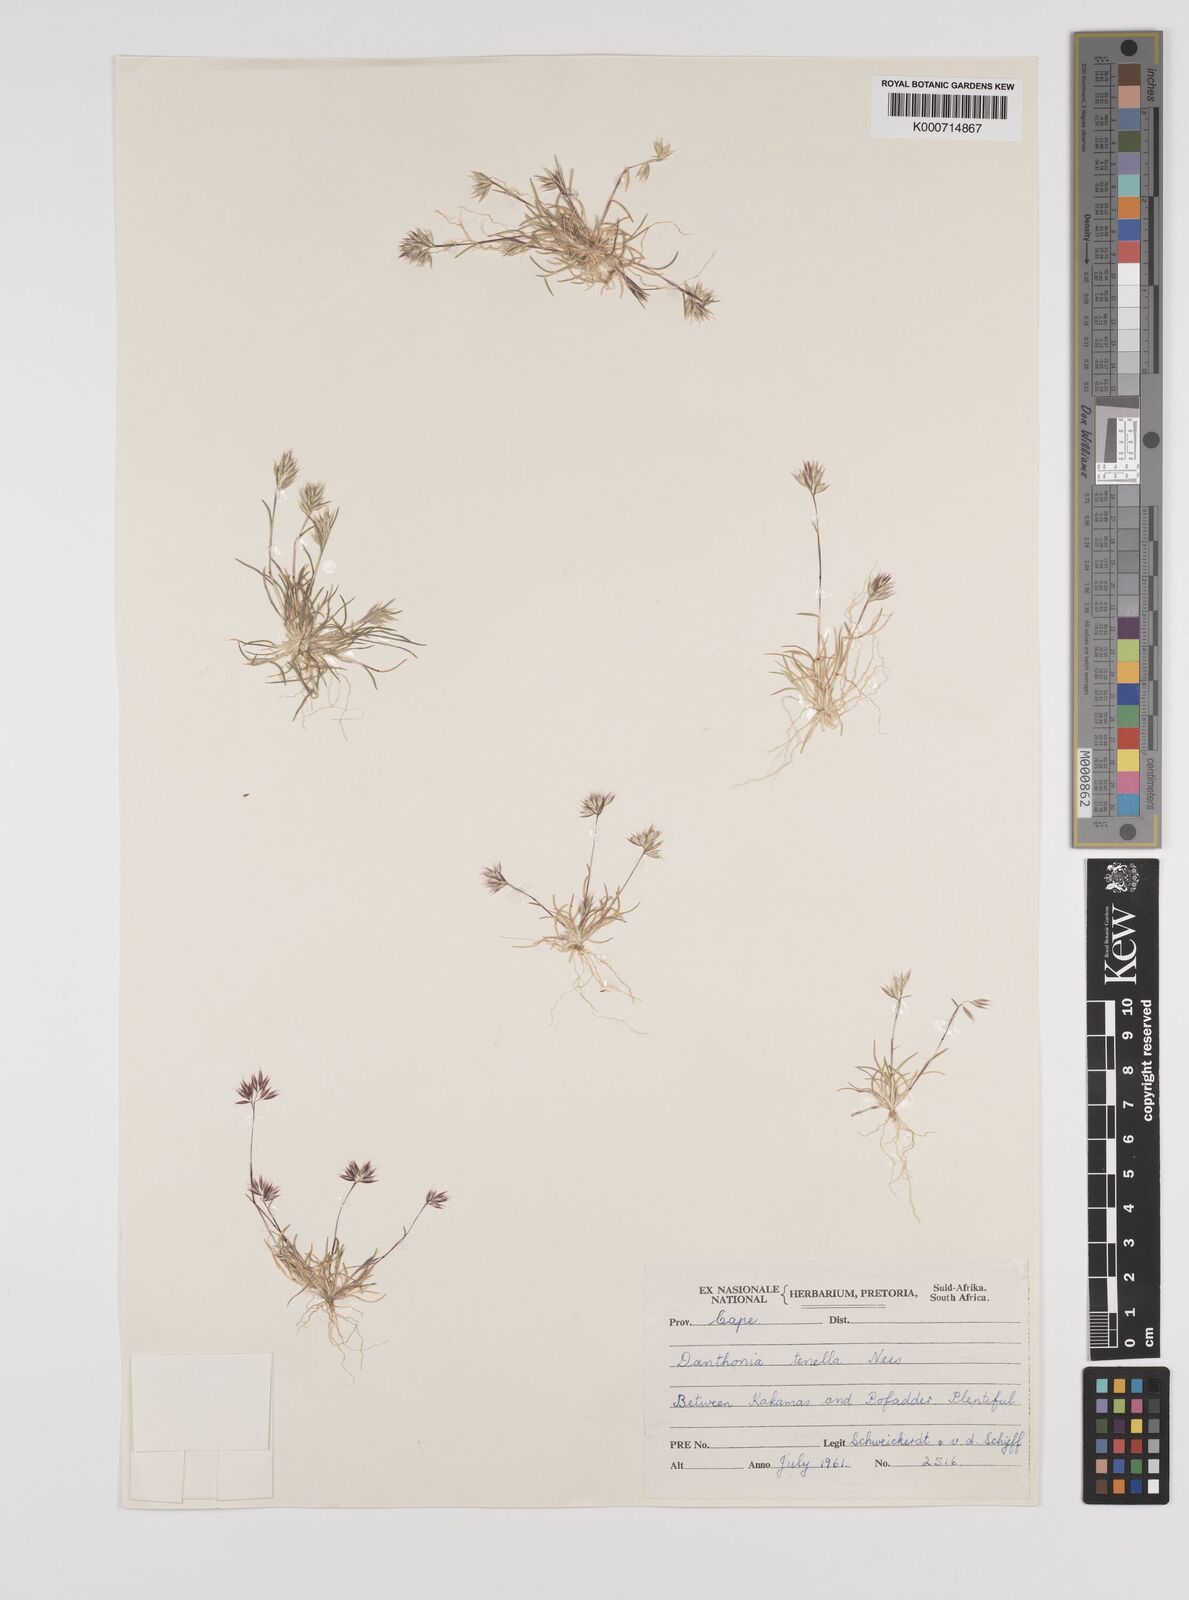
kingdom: Plantae
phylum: Tracheophyta
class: Liliopsida
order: Poales
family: Poaceae
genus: Rytidosperma
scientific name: Rytidosperma
